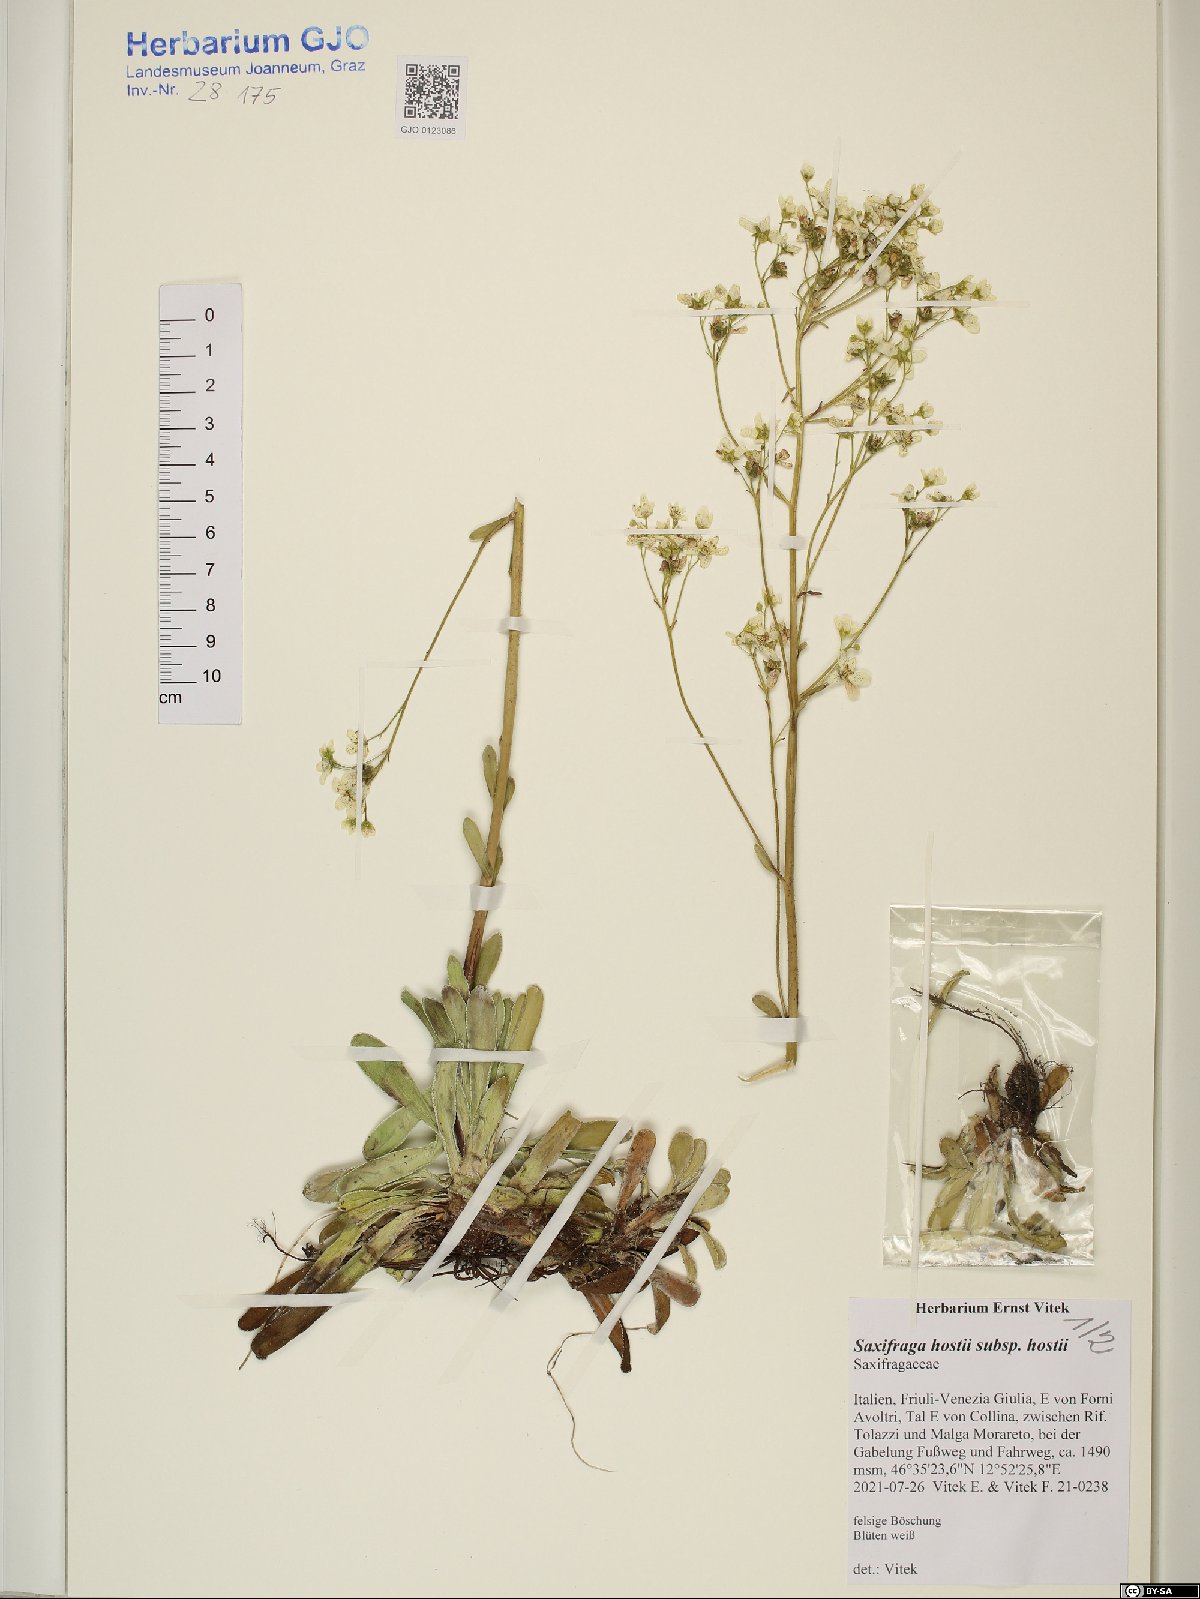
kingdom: Plantae
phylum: Tracheophyta
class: Magnoliopsida
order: Saxifragales
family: Saxifragaceae
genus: Saxifraga
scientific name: Saxifraga hostii
